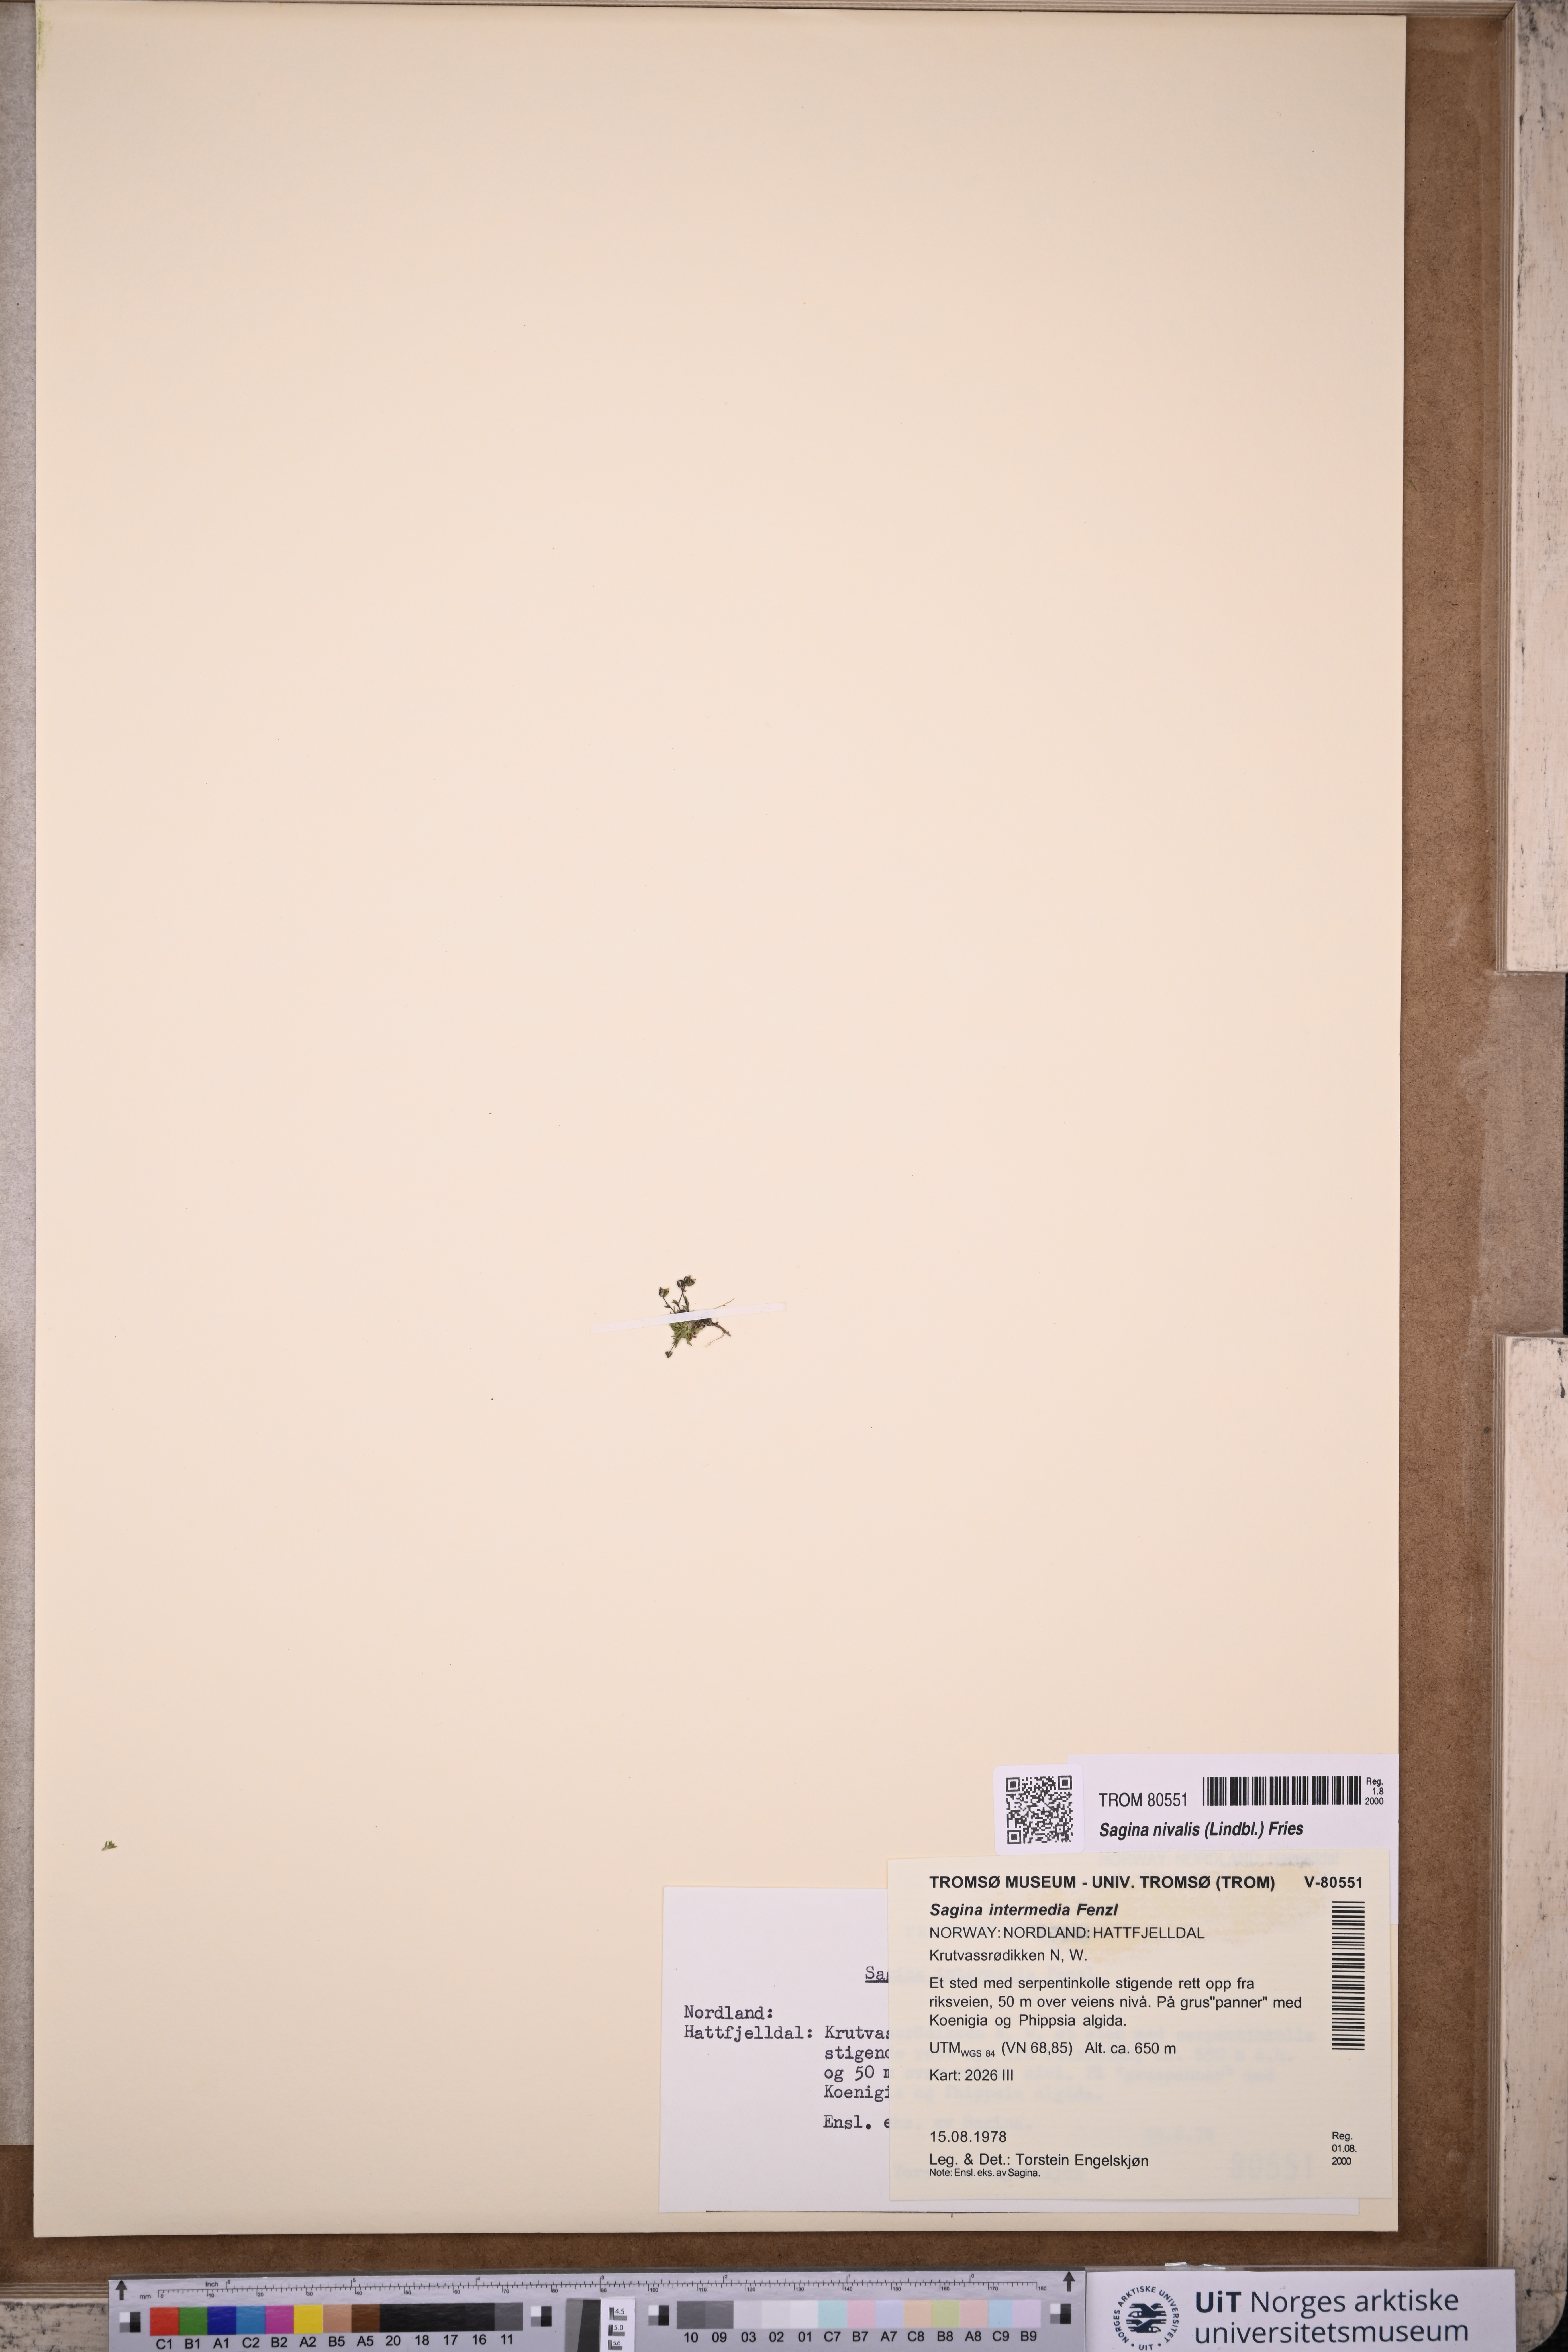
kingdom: Plantae
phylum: Tracheophyta
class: Magnoliopsida
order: Caryophyllales
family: Caryophyllaceae
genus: Sagina
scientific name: Sagina nivalis
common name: Snow pearlwort
